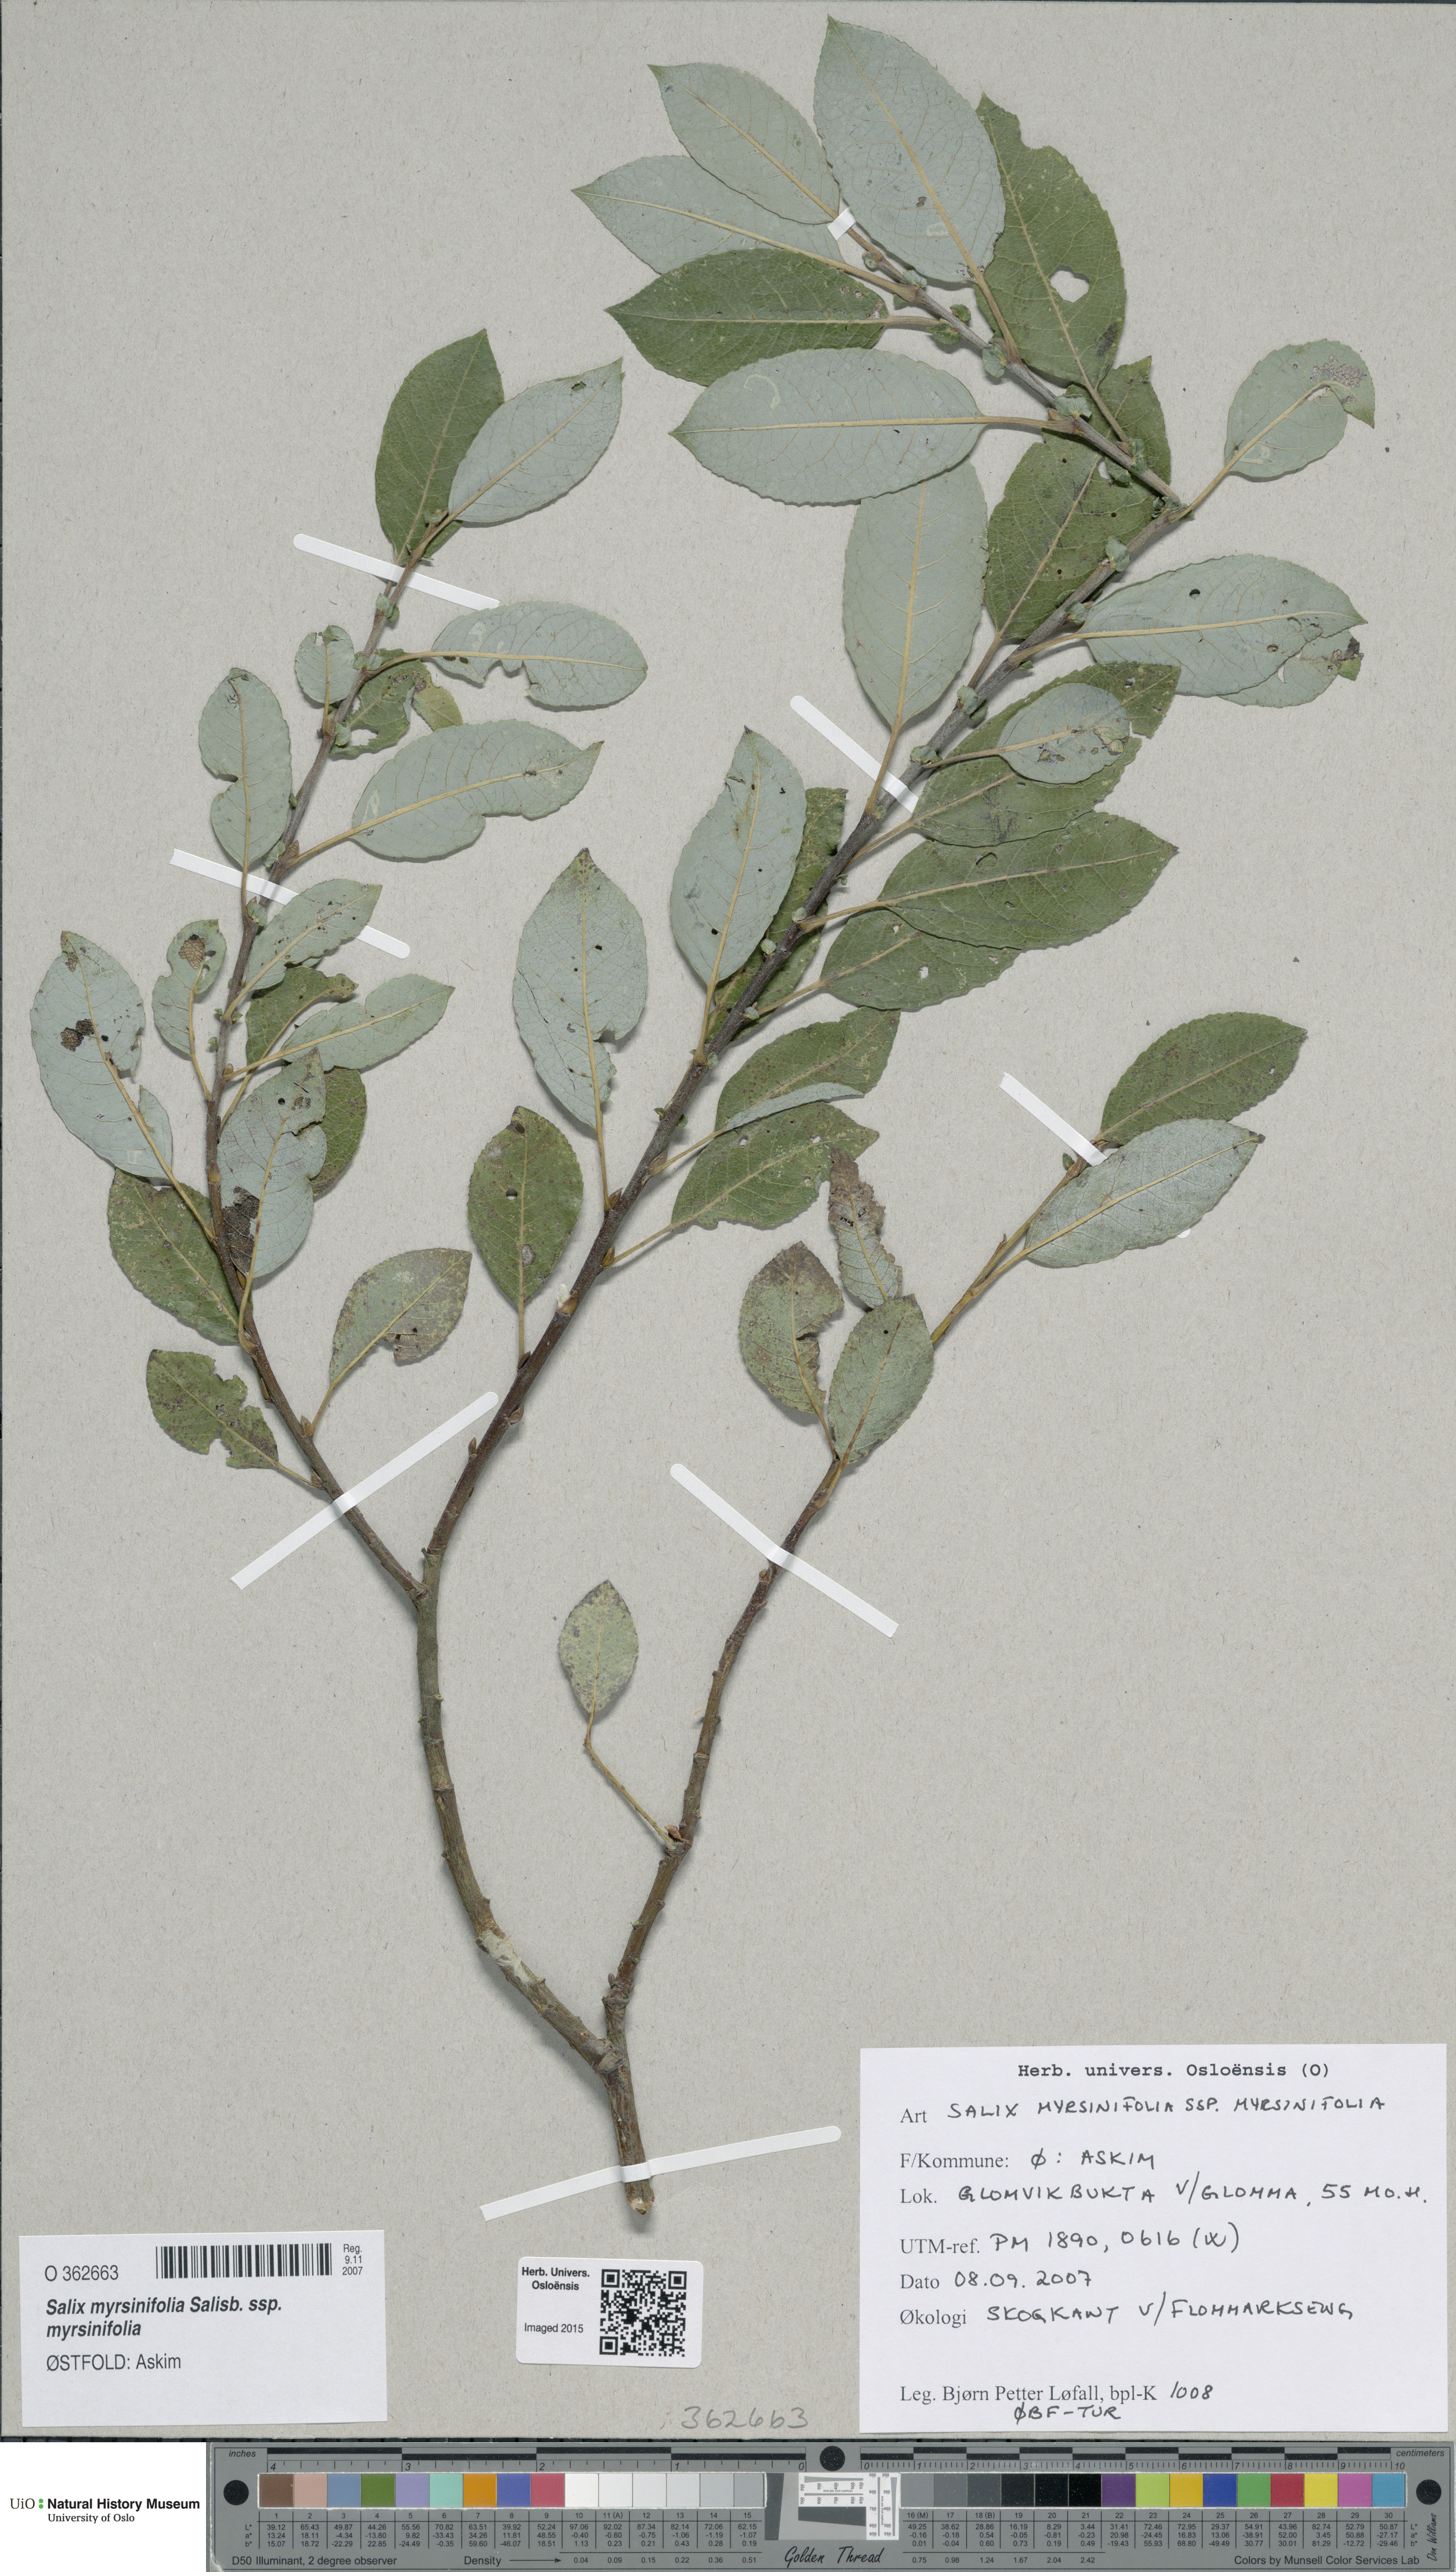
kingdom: Plantae
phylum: Tracheophyta
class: Magnoliopsida
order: Malpighiales
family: Salicaceae
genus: Salix
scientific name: Salix myrsinifolia
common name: Dark-leaved willow
